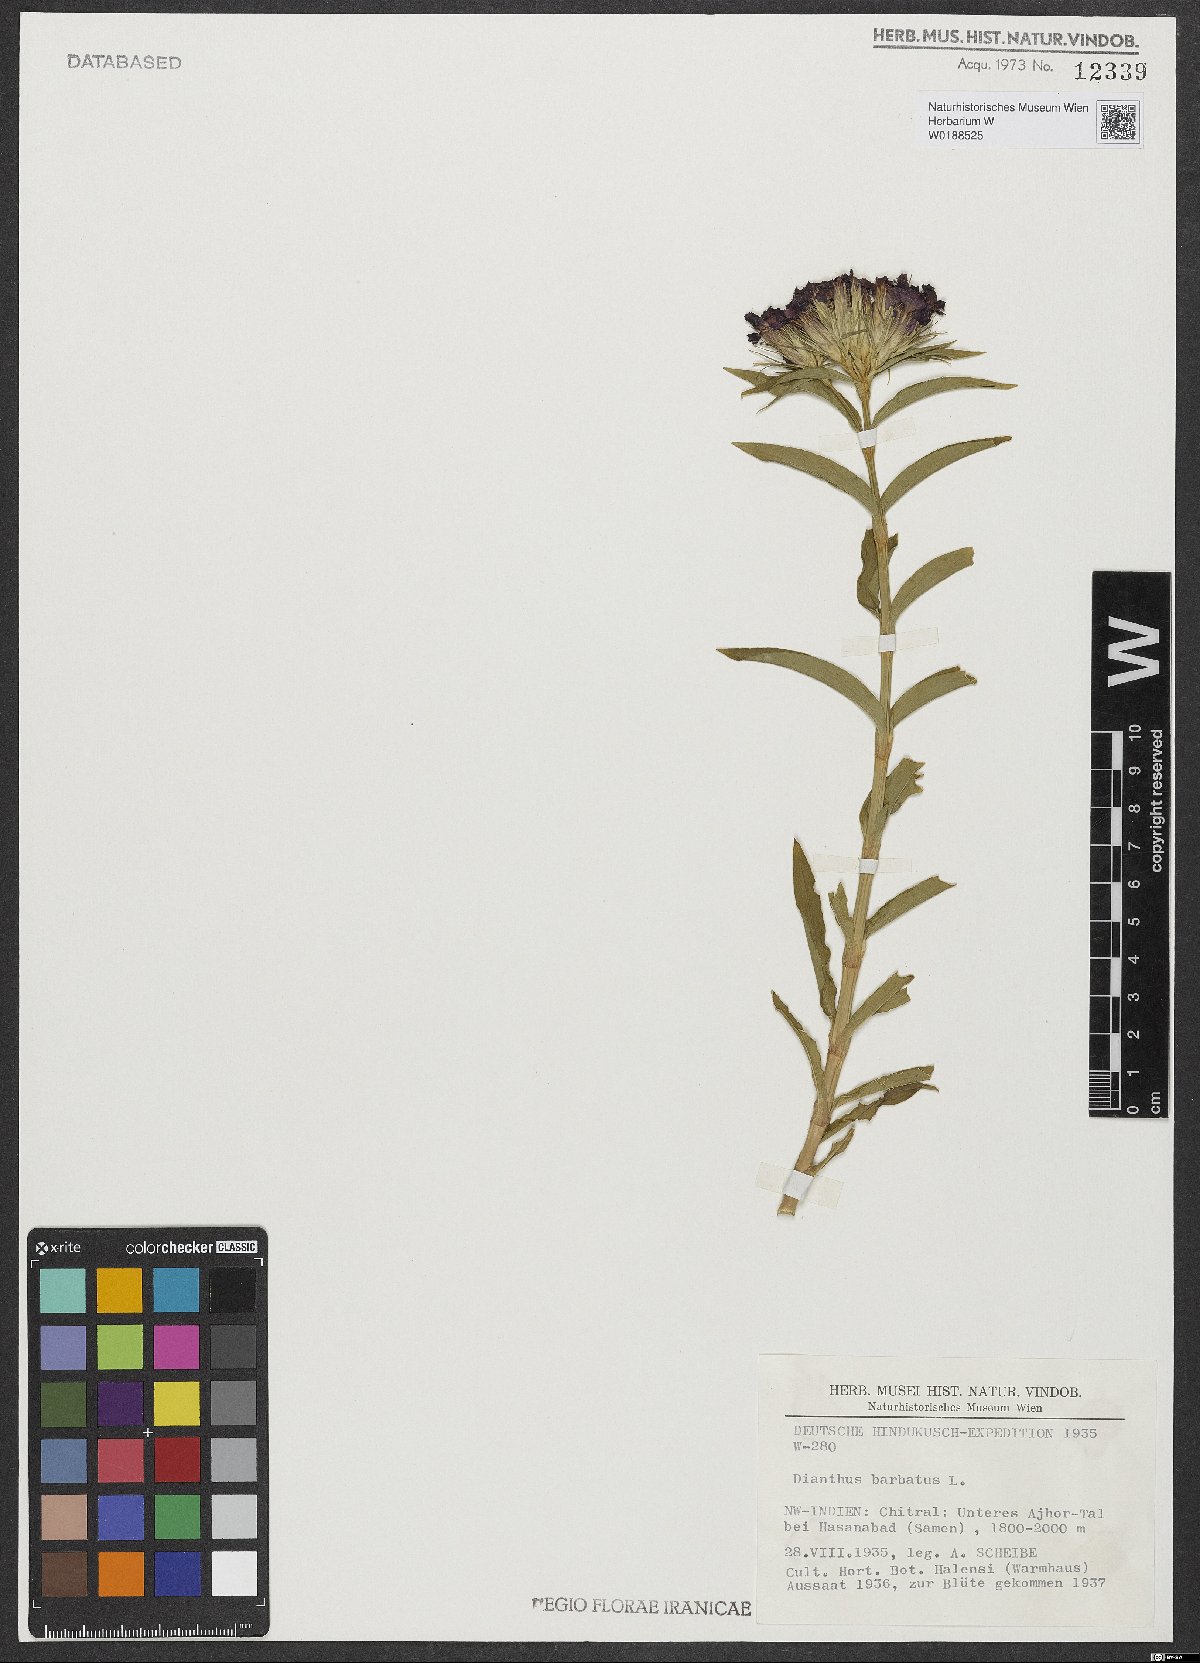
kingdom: Plantae
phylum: Tracheophyta
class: Magnoliopsida
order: Caryophyllales
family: Caryophyllaceae
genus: Dianthus
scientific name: Dianthus barbatus
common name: Sweet-william
